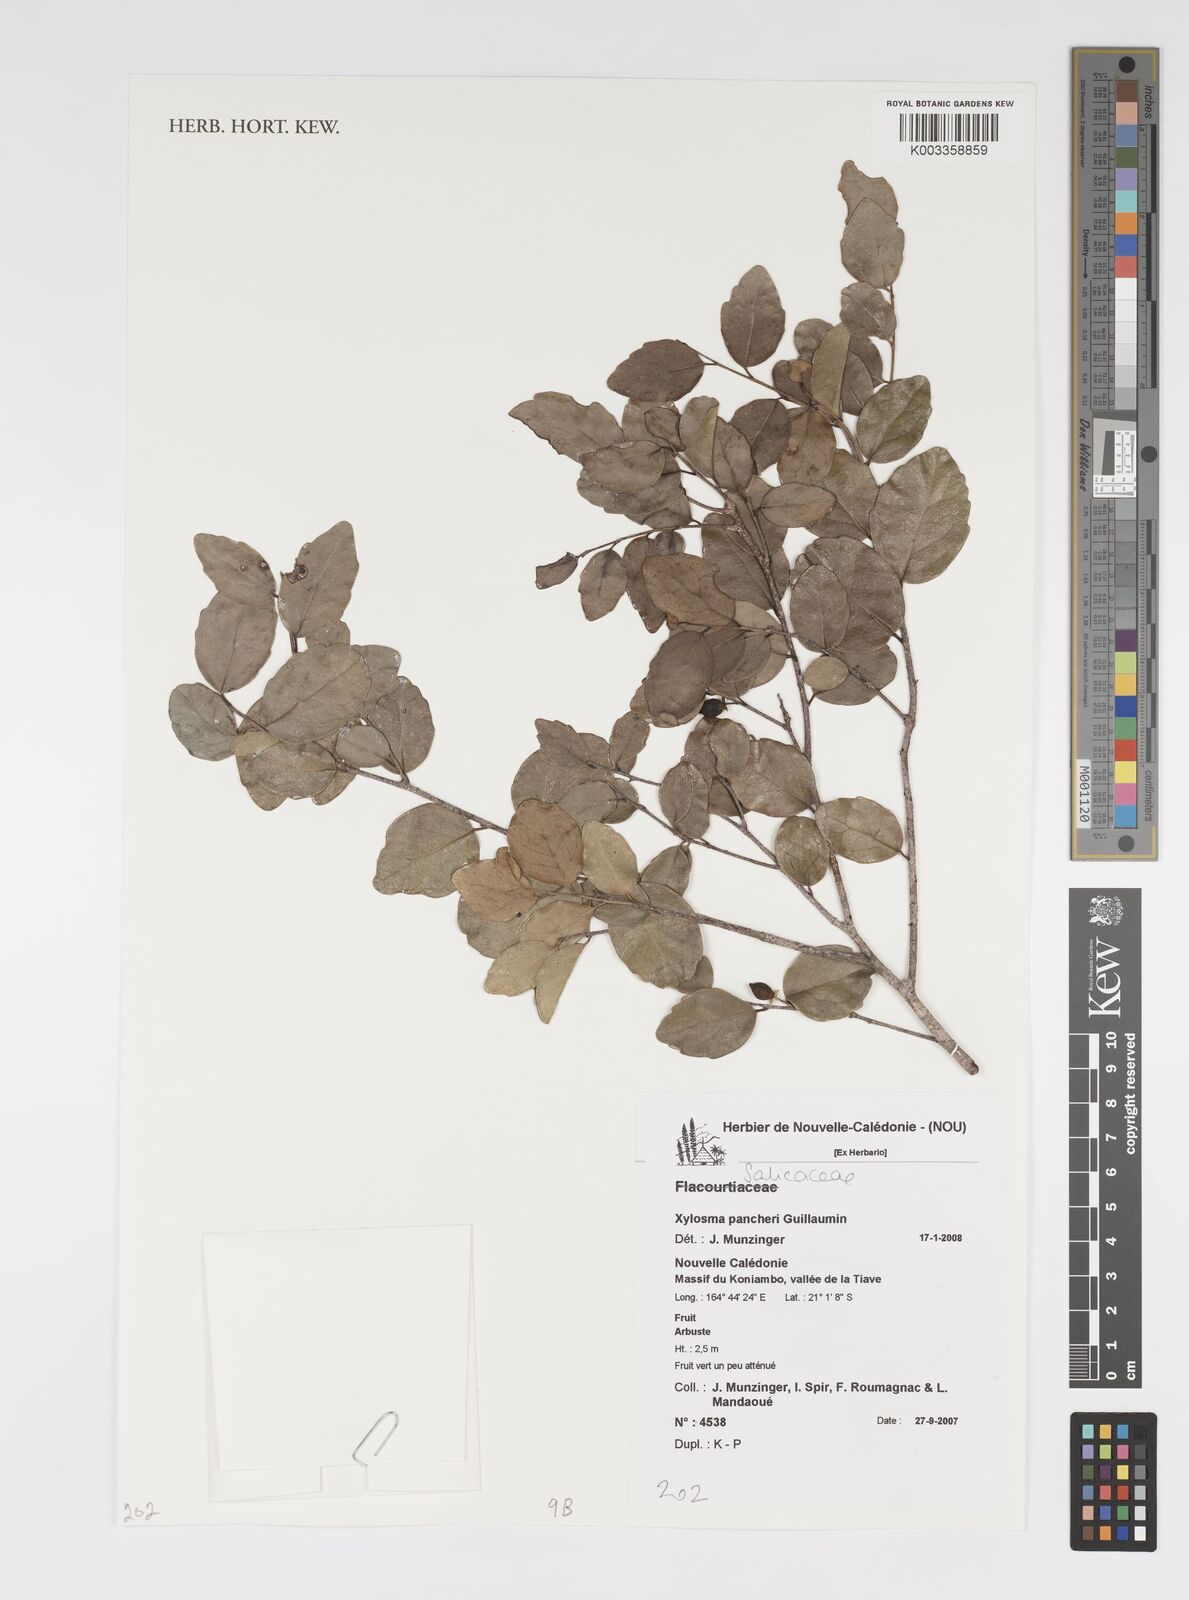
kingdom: Plantae
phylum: Tracheophyta
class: Magnoliopsida
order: Malpighiales
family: Salicaceae
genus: Xylosma
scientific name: Xylosma pancheri
